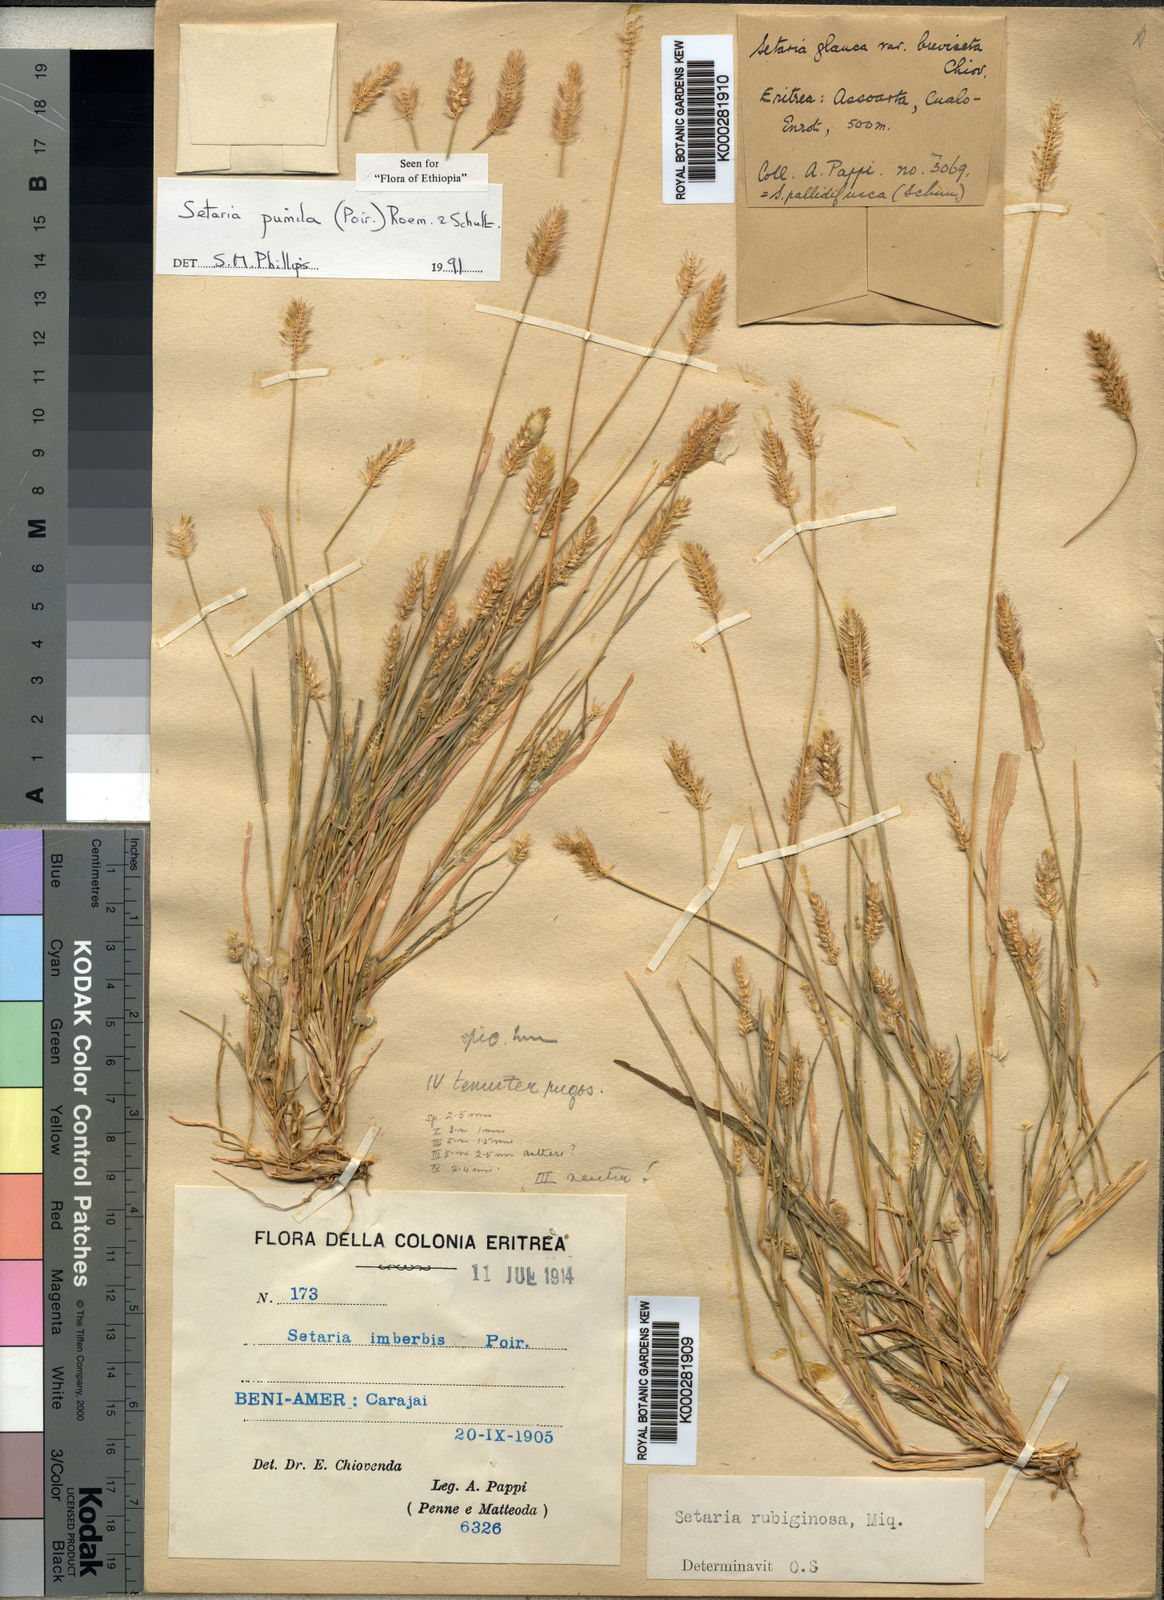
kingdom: Plantae
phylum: Tracheophyta
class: Liliopsida
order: Poales
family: Poaceae
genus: Setaria
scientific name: Setaria pumila
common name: Yellow bristle-grass
